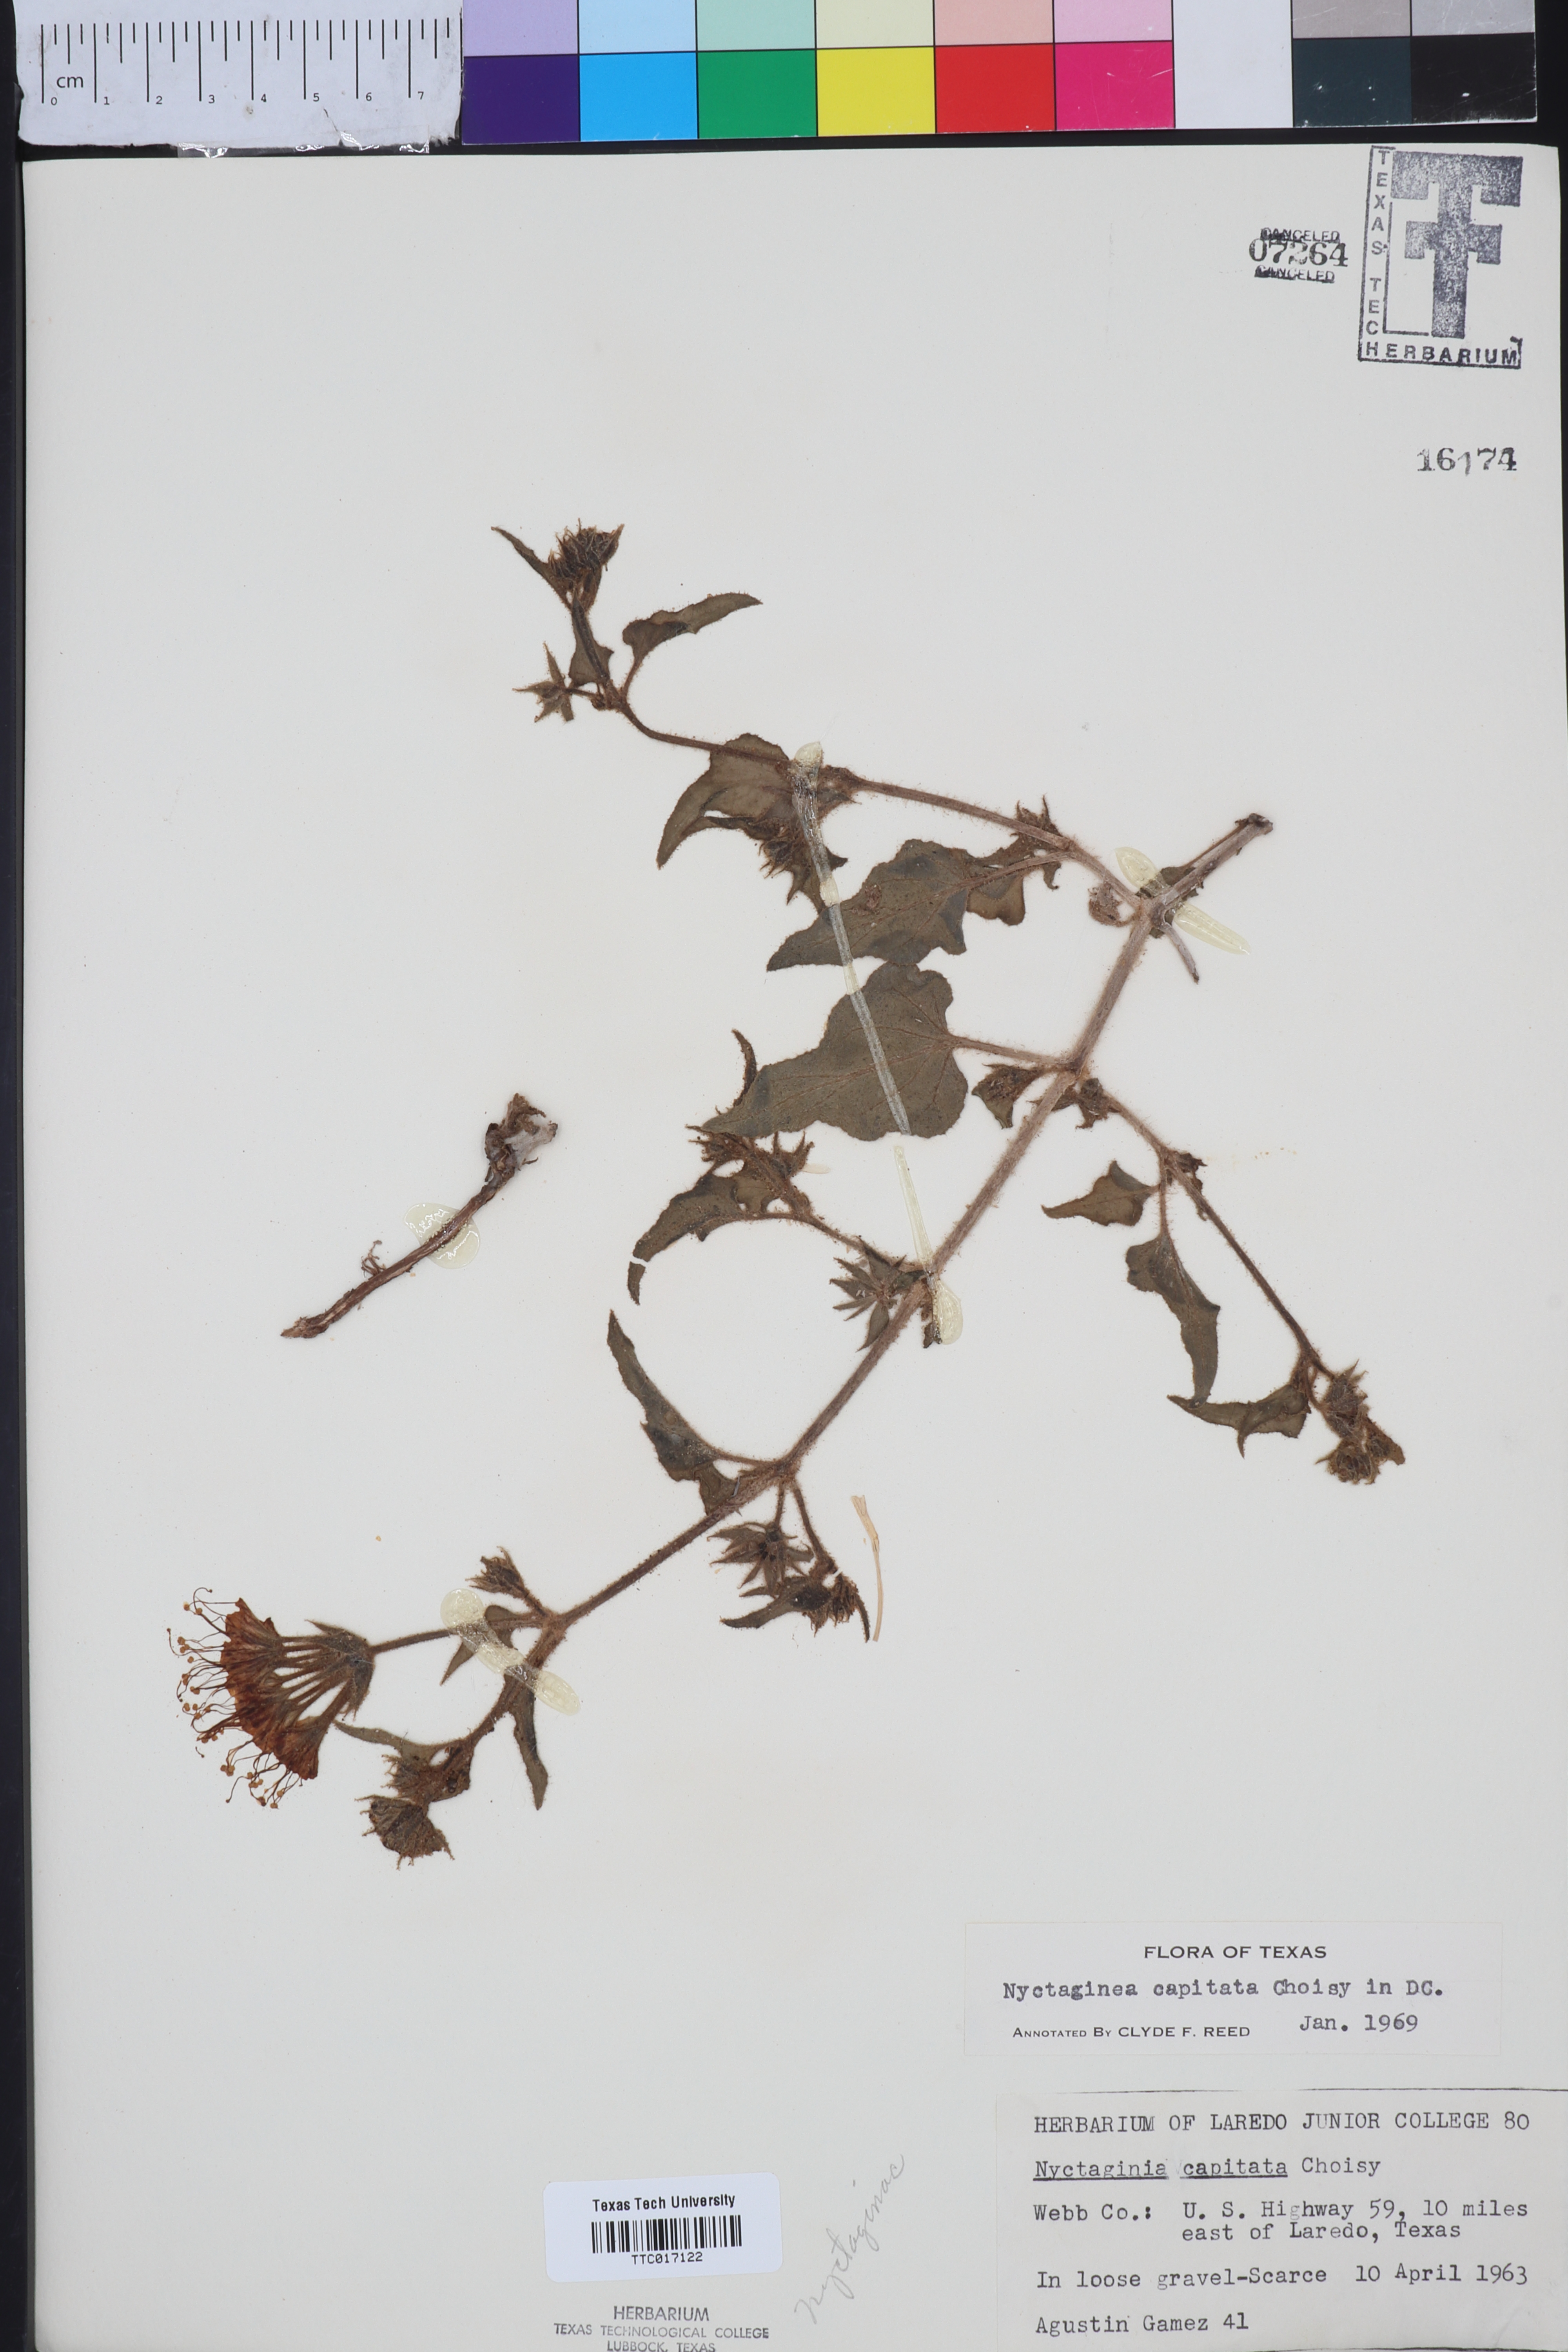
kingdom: Plantae
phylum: Tracheophyta
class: Magnoliopsida
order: Caryophyllales
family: Nyctaginaceae
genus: Nyctaginia
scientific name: Nyctaginia capitata
